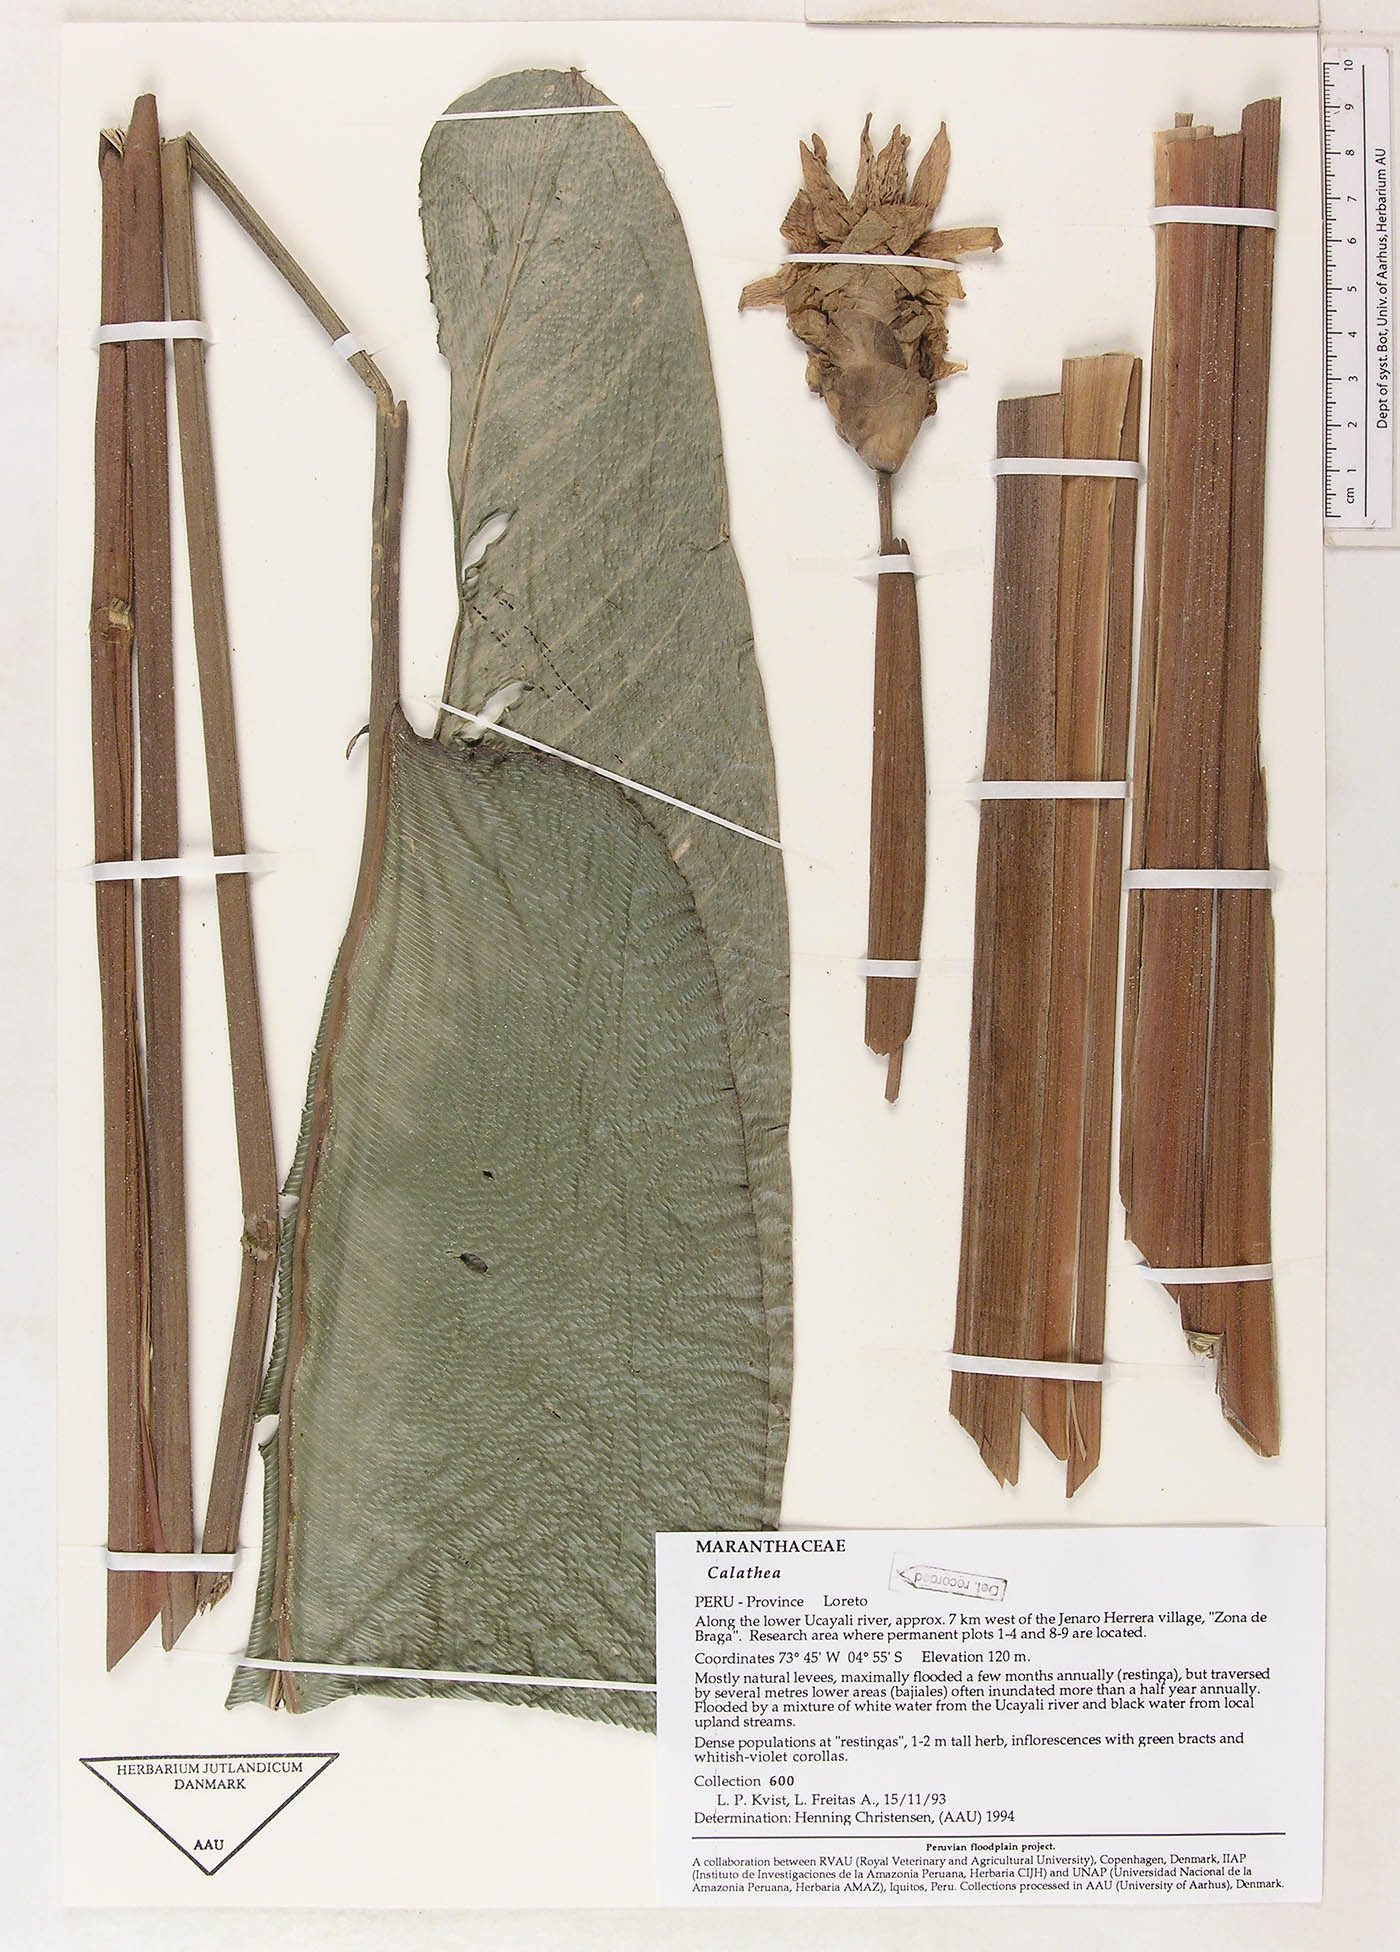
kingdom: Plantae
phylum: Tracheophyta
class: Magnoliopsida
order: Laurales
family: Lauraceae
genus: Goeppertia
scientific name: Goeppertia
